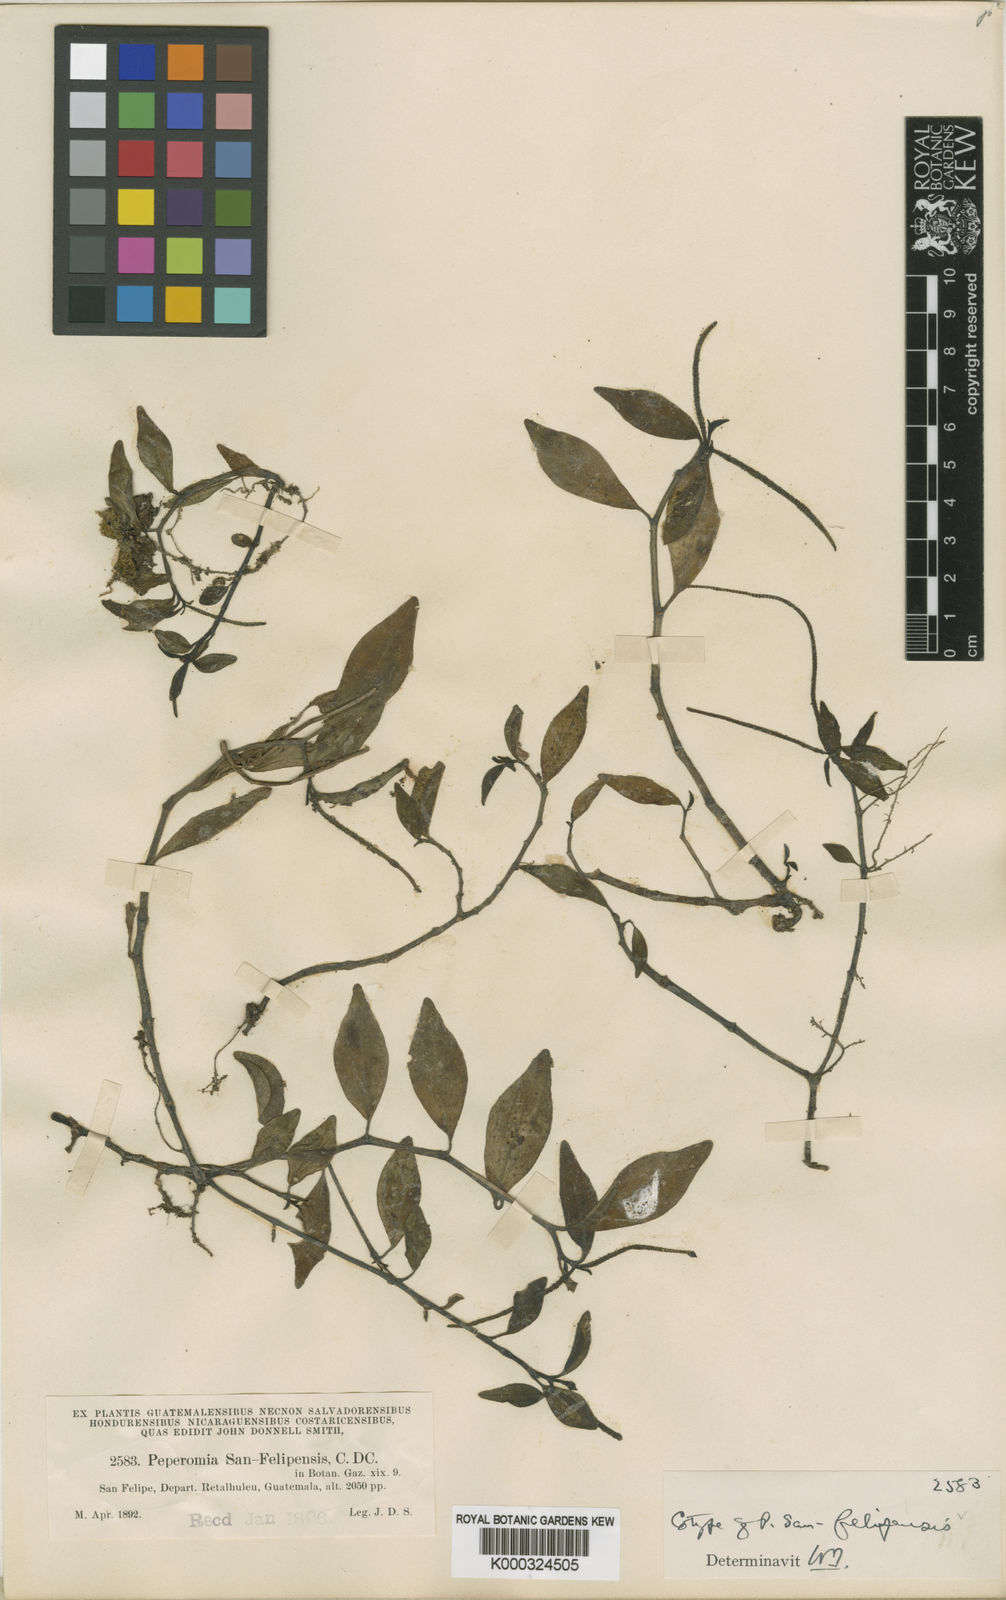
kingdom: Plantae
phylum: Tracheophyta
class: Magnoliopsida
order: Piperales
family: Piperaceae
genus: Peperomia
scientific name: Peperomia
